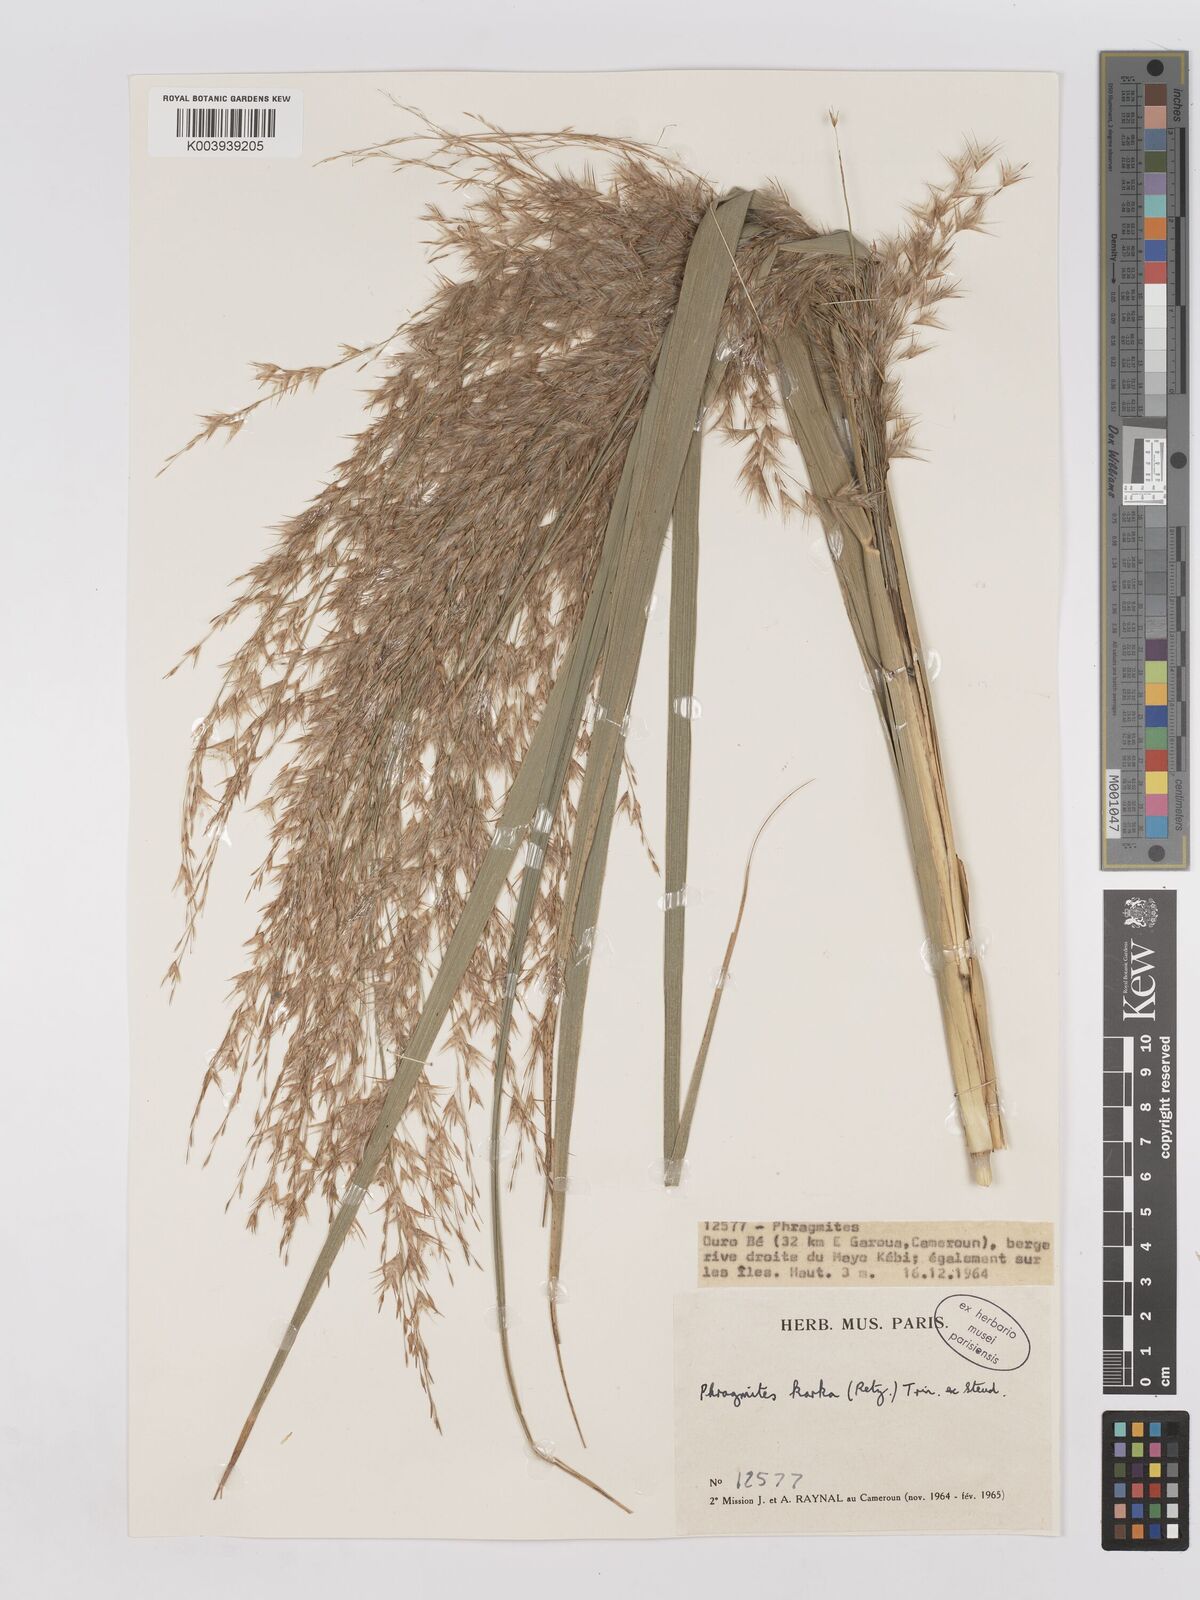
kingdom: Plantae
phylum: Tracheophyta
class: Liliopsida
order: Poales
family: Poaceae
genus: Phragmites
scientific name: Phragmites karka
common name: Tropical reed
